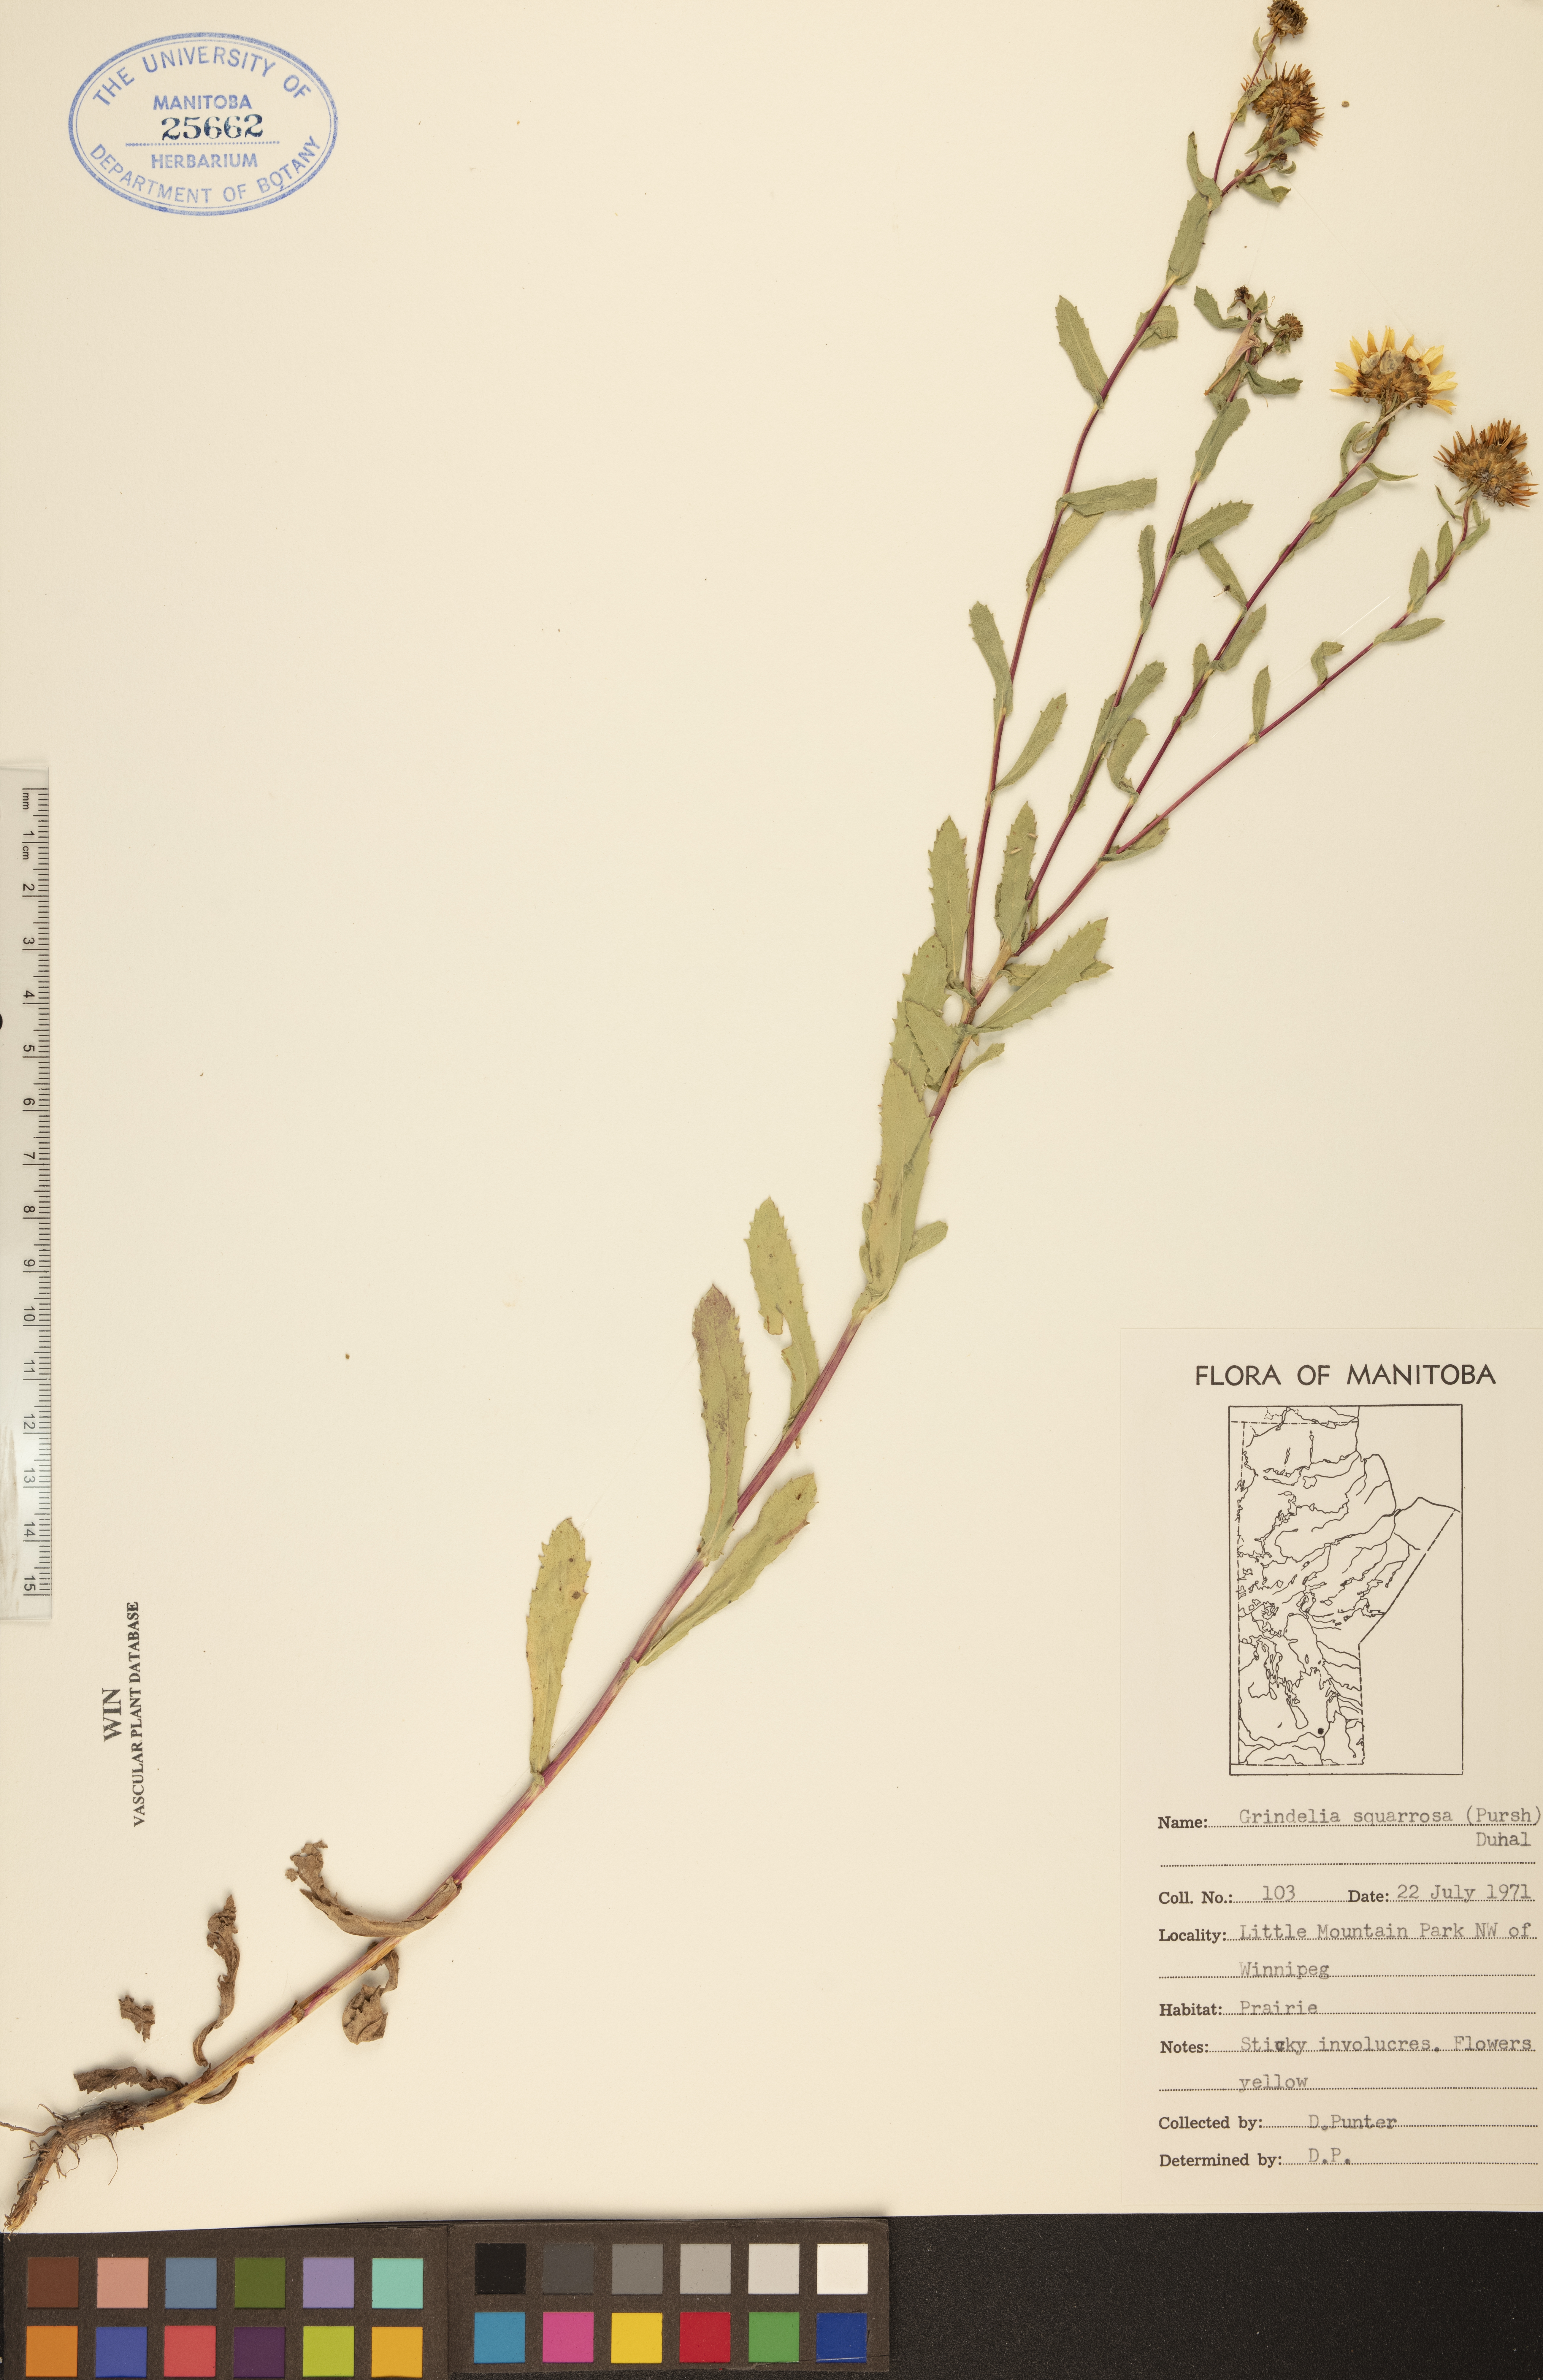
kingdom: Plantae
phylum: Tracheophyta
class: Magnoliopsida
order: Asterales
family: Asteraceae
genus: Grindelia
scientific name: Grindelia squarrosa
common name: Curly-cup gumweed
